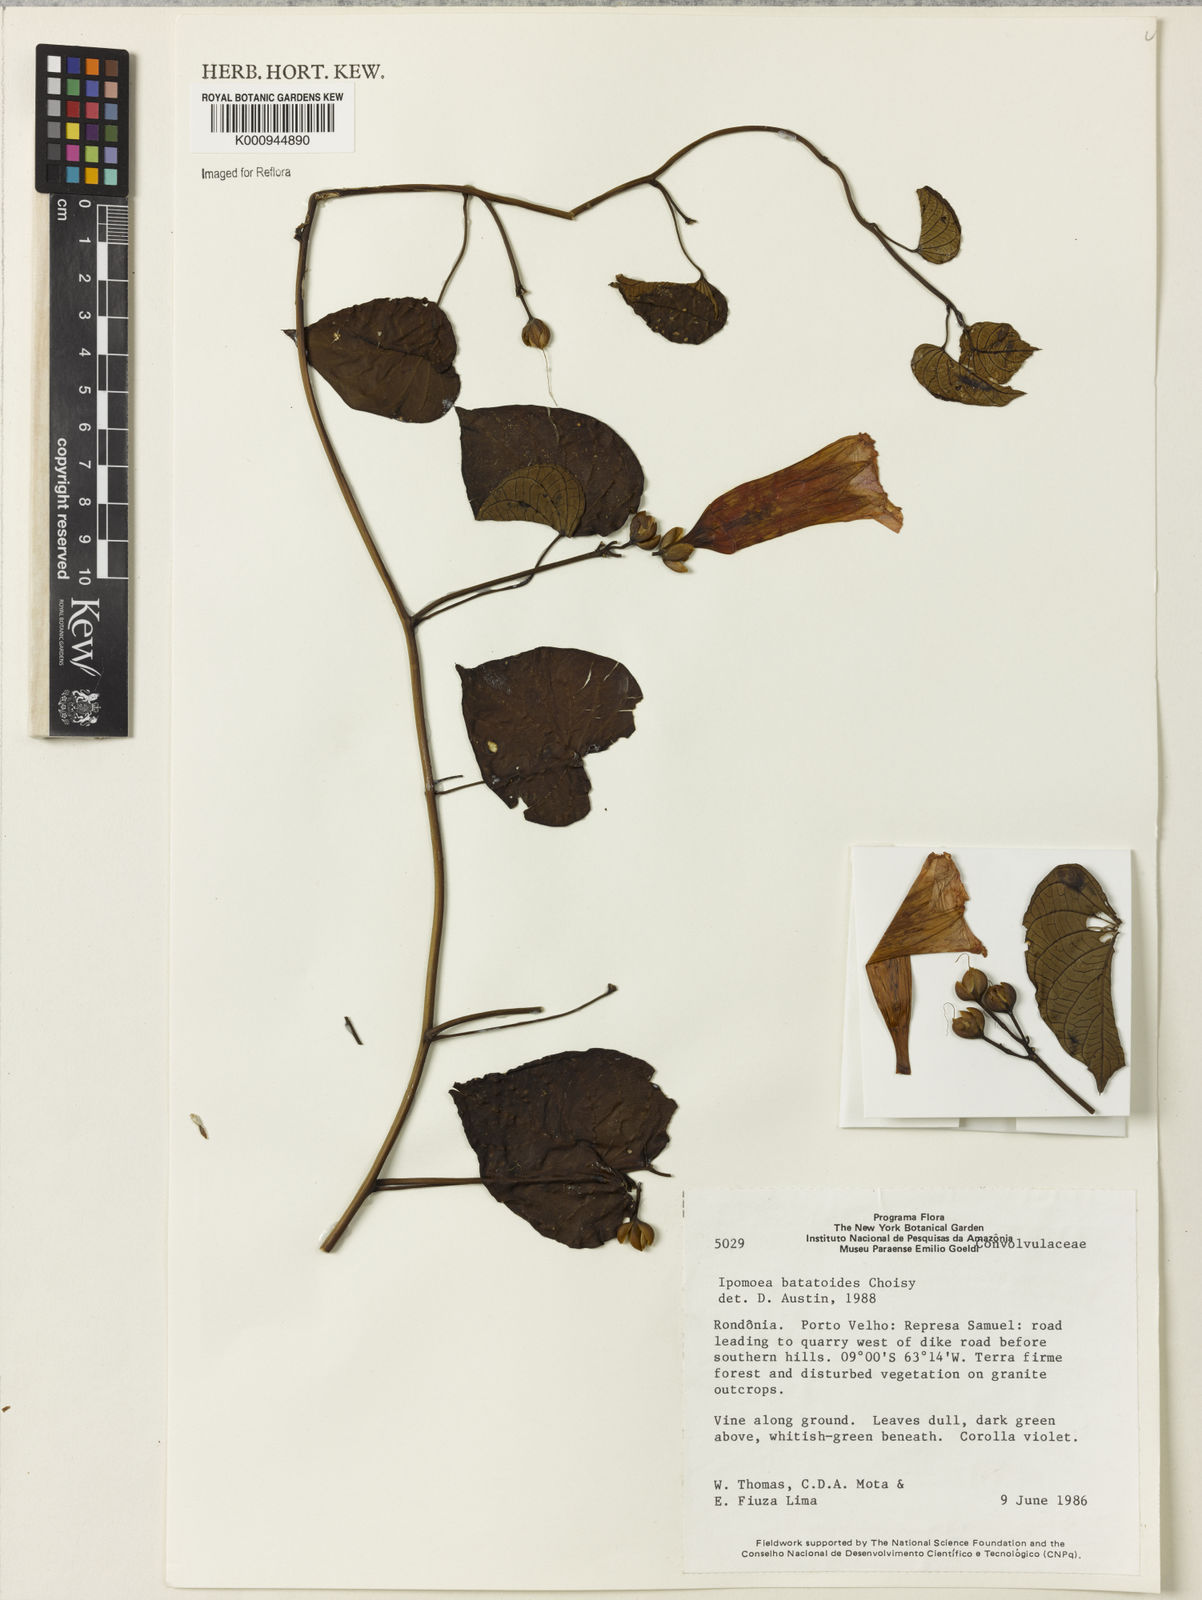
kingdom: Plantae
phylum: Tracheophyta
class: Magnoliopsida
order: Solanales
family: Convolvulaceae
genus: Ipomoea
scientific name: Ipomoea batatoides
